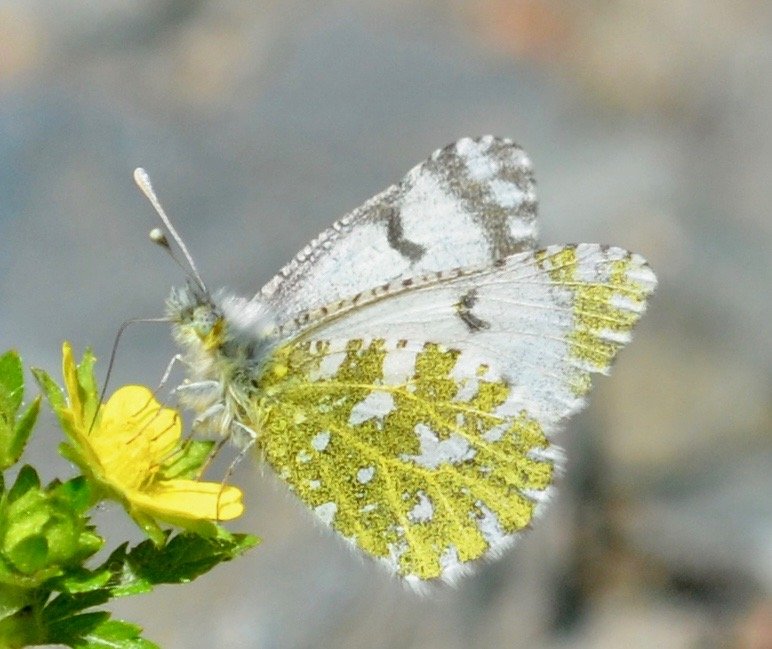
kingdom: Animalia
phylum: Arthropoda
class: Insecta
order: Lepidoptera
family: Pieridae
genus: Euchloe
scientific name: Euchloe creusa
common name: Northern Marble
